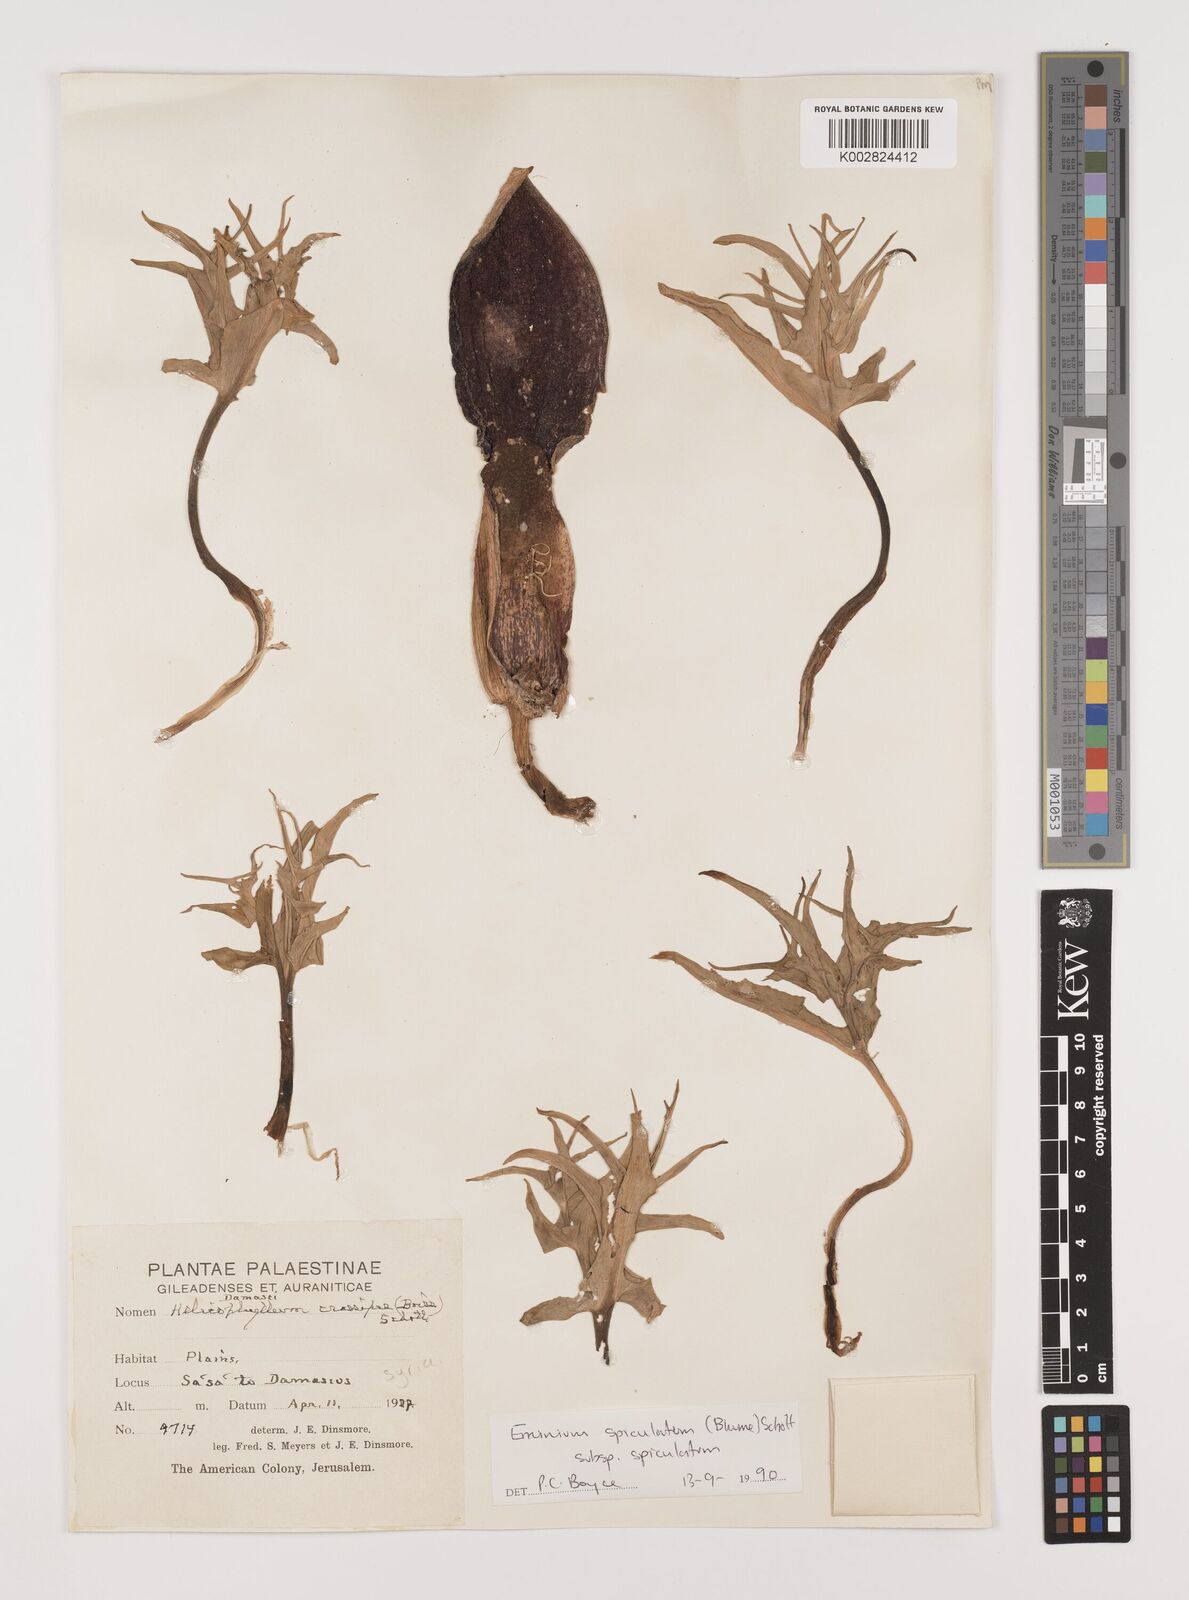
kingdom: Plantae
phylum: Tracheophyta
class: Liliopsida
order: Alismatales
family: Araceae
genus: Eminium
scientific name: Eminium spiculatum
